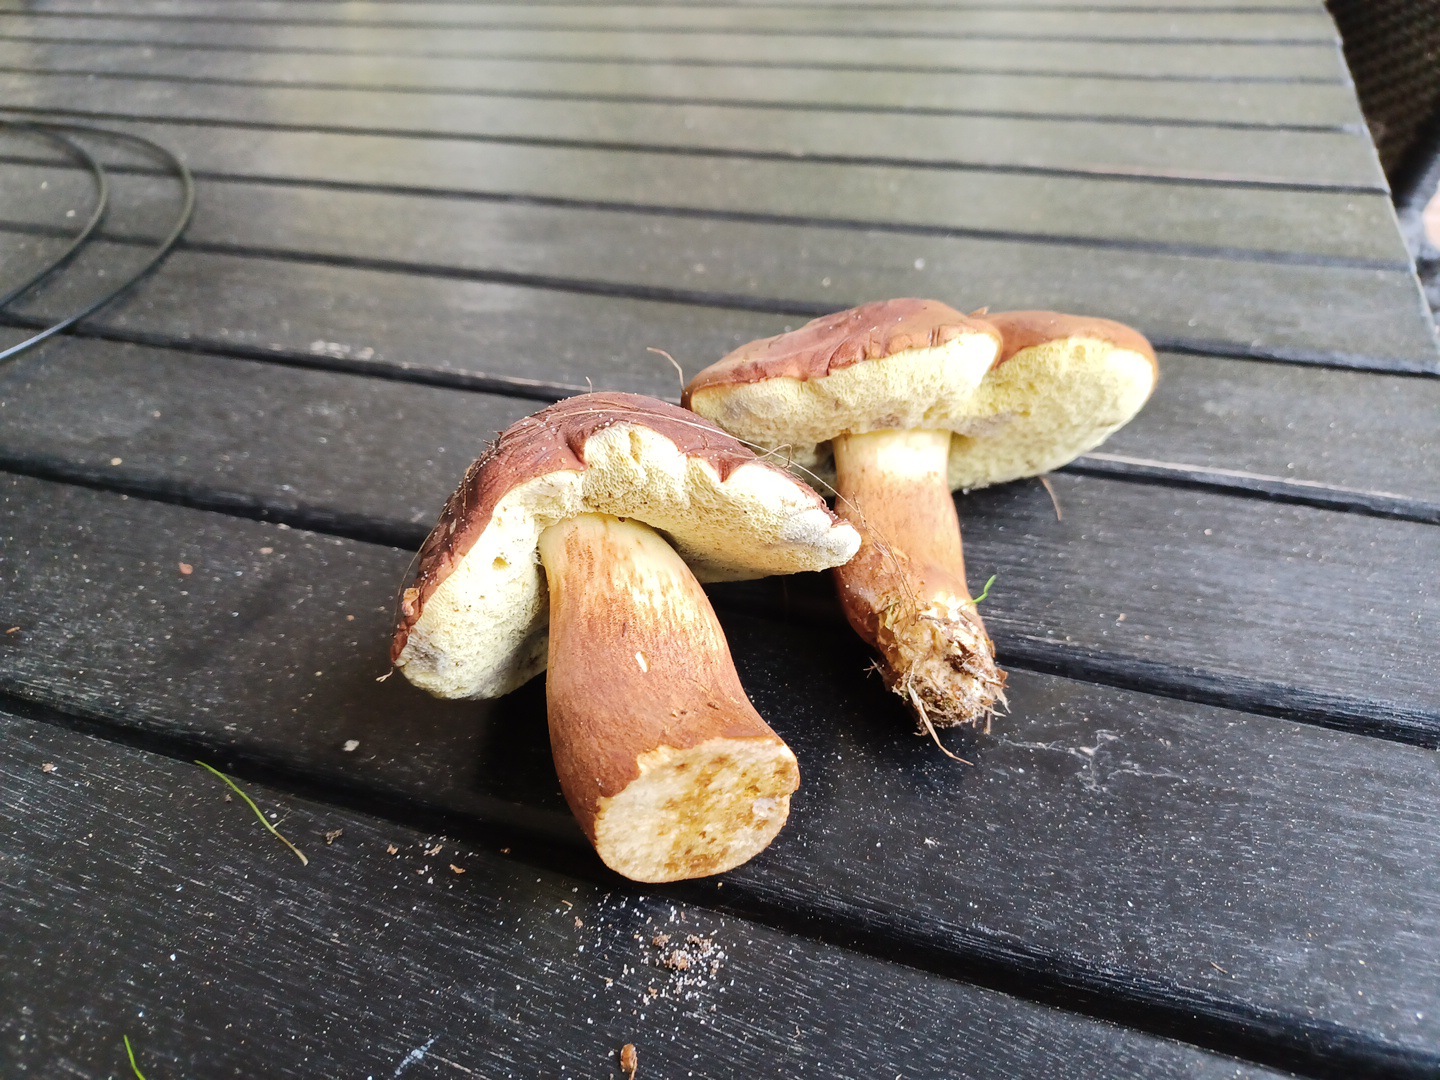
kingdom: Fungi
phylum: Basidiomycota
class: Agaricomycetes
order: Boletales
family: Boletaceae
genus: Imleria
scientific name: Imleria badia
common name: brunstokket rørhat
